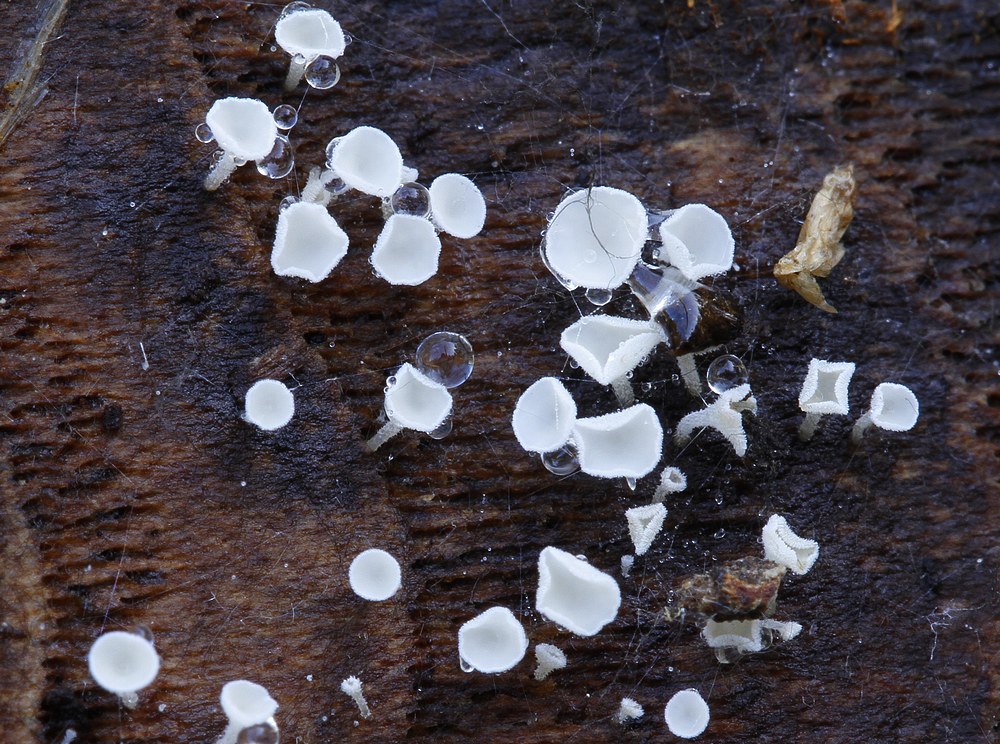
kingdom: Fungi
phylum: Ascomycota
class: Leotiomycetes
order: Helotiales
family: Hyaloscyphaceae
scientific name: Hyaloscyphaceae
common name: frynseskivefamilien
